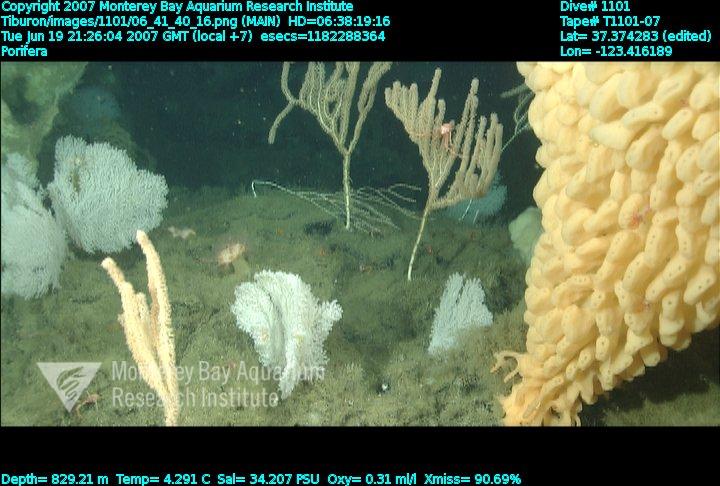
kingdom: Animalia
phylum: Porifera
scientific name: Porifera
